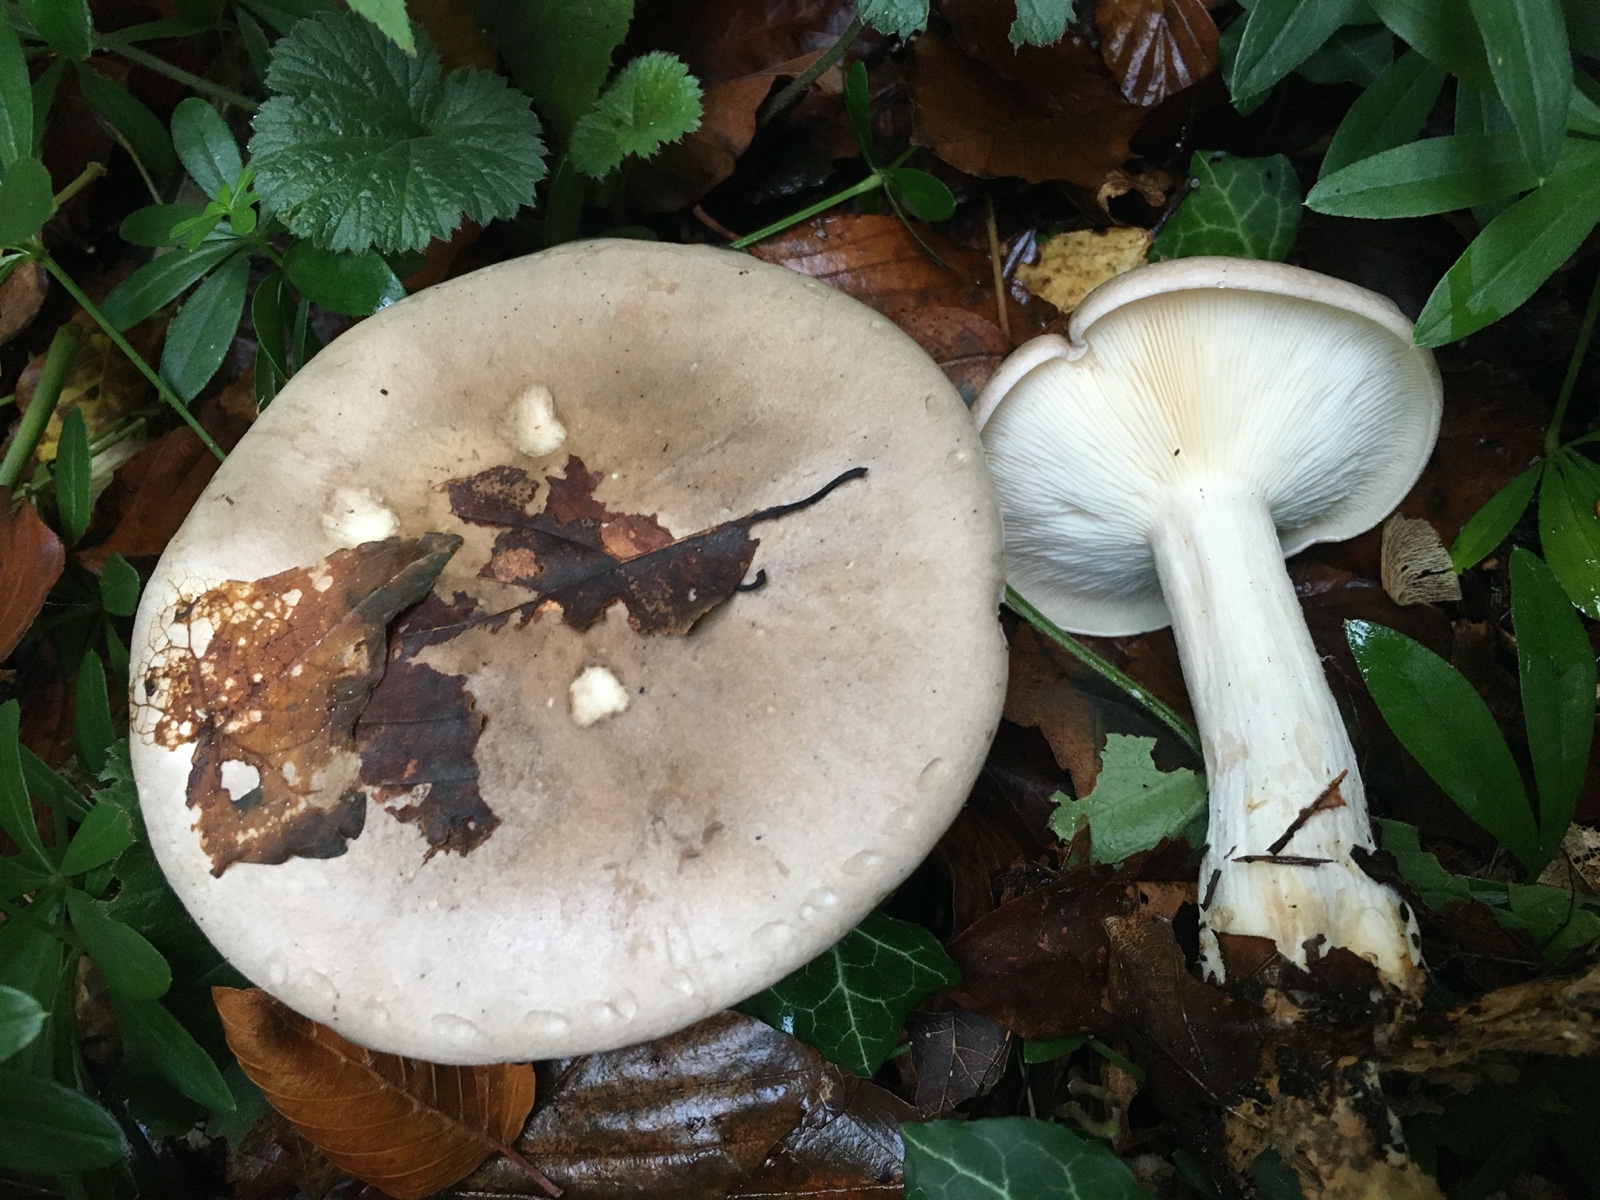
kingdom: Fungi
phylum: Basidiomycota
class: Agaricomycetes
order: Agaricales
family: Tricholomataceae
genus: Clitocybe
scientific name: Clitocybe nebularis
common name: tåge-tragthat
